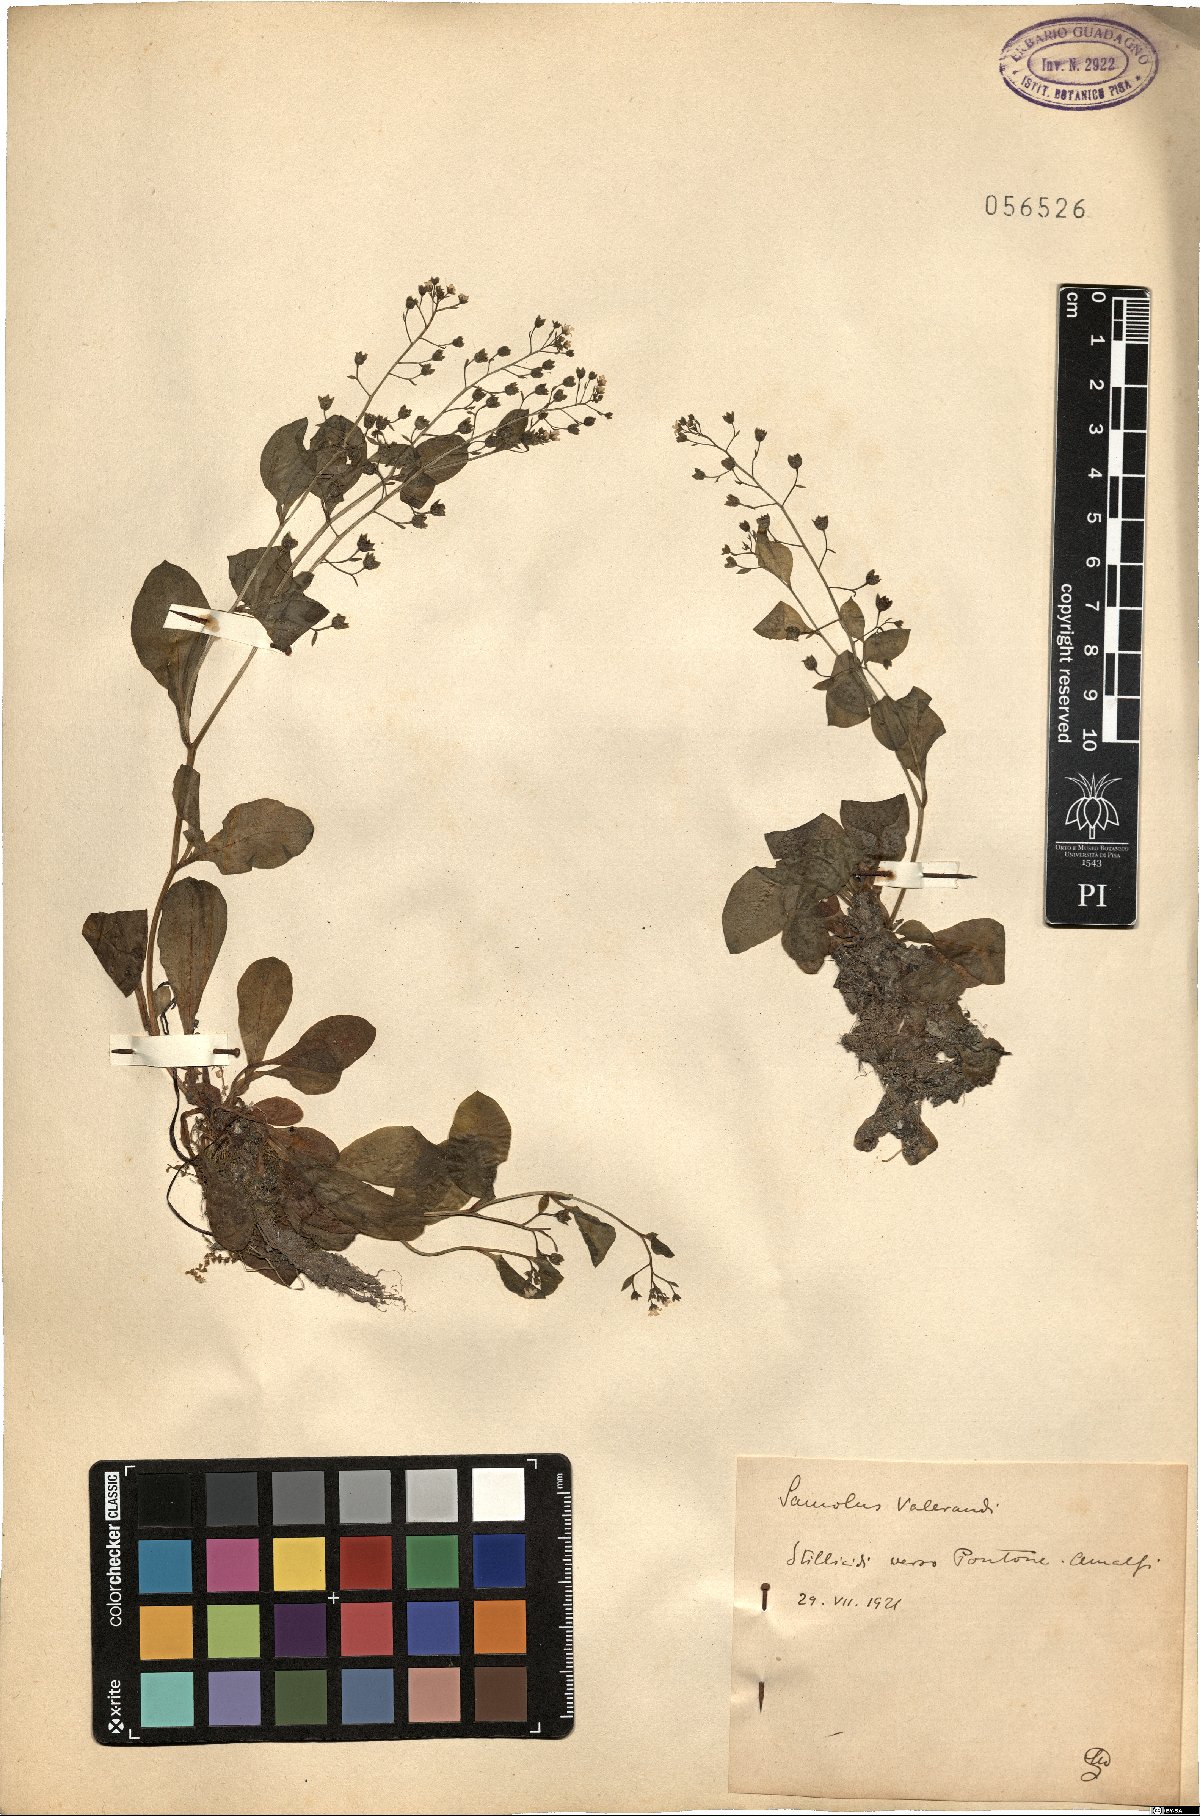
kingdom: Plantae
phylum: Tracheophyta
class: Magnoliopsida
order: Ericales
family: Primulaceae
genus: Samolus
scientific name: Samolus valerandi
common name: Brookweed
